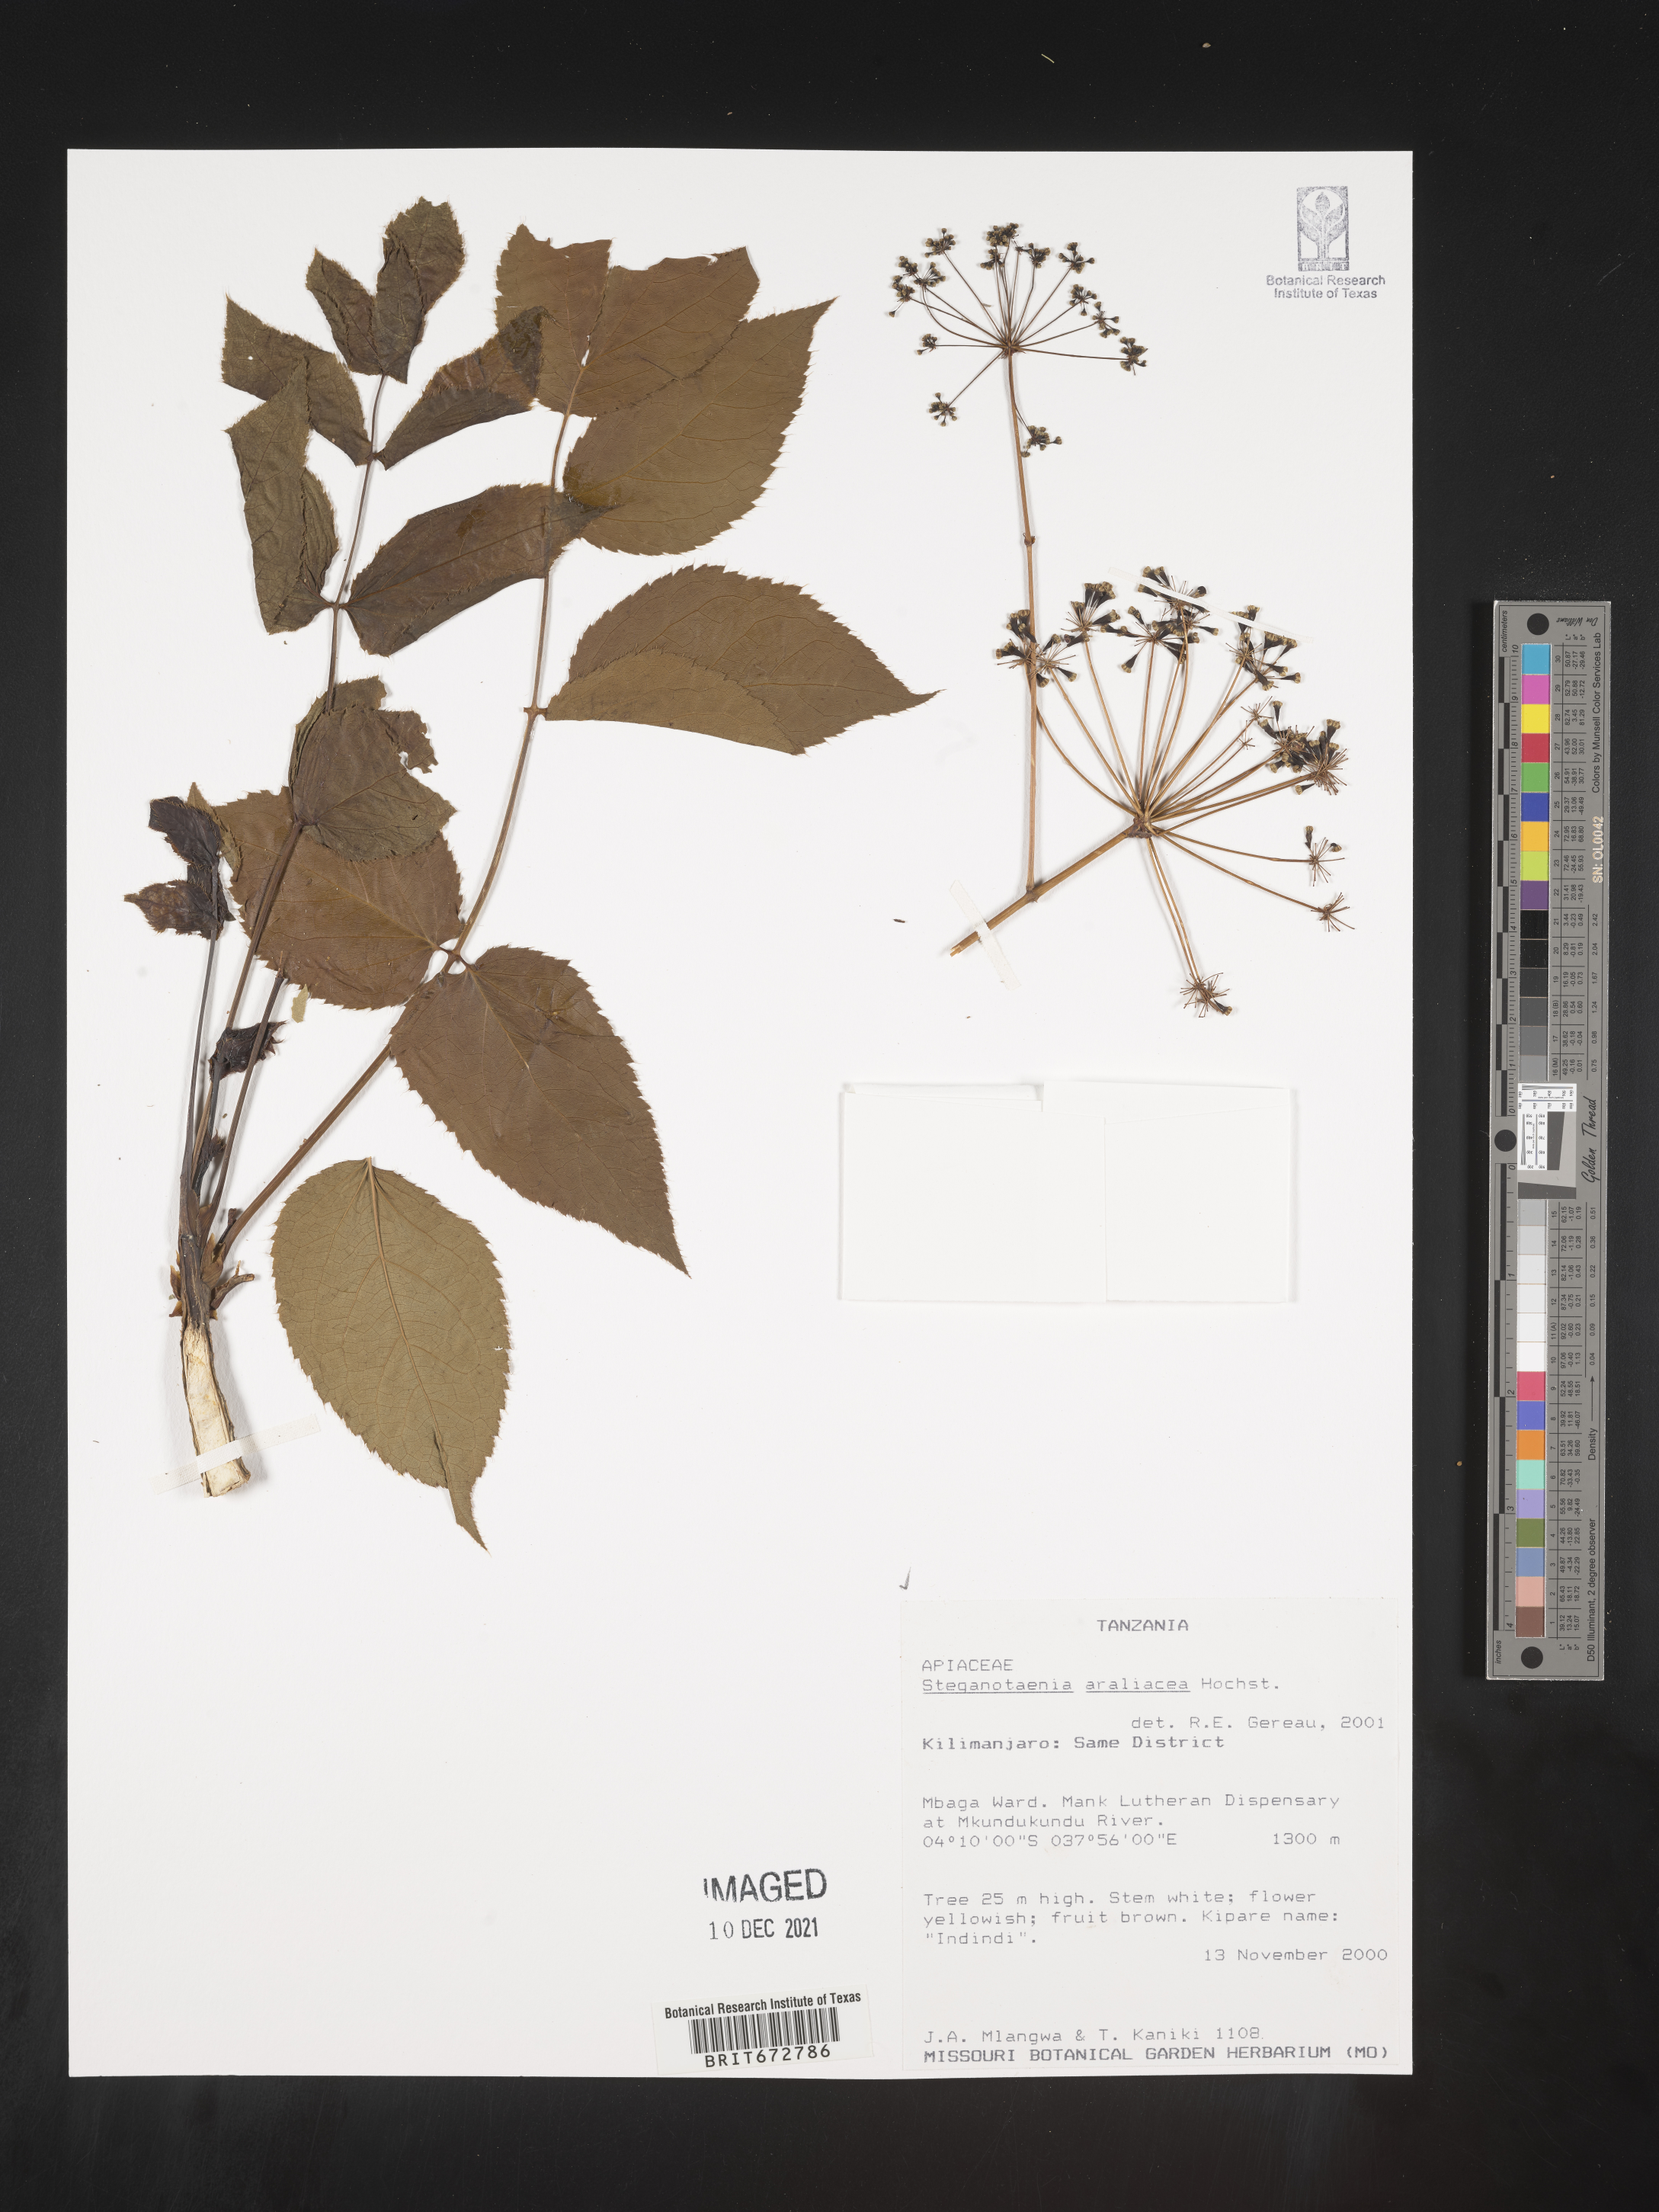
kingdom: Plantae
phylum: Tracheophyta
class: Magnoliopsida
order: Apiales
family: Apiaceae
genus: Steganotaenia
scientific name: Steganotaenia
